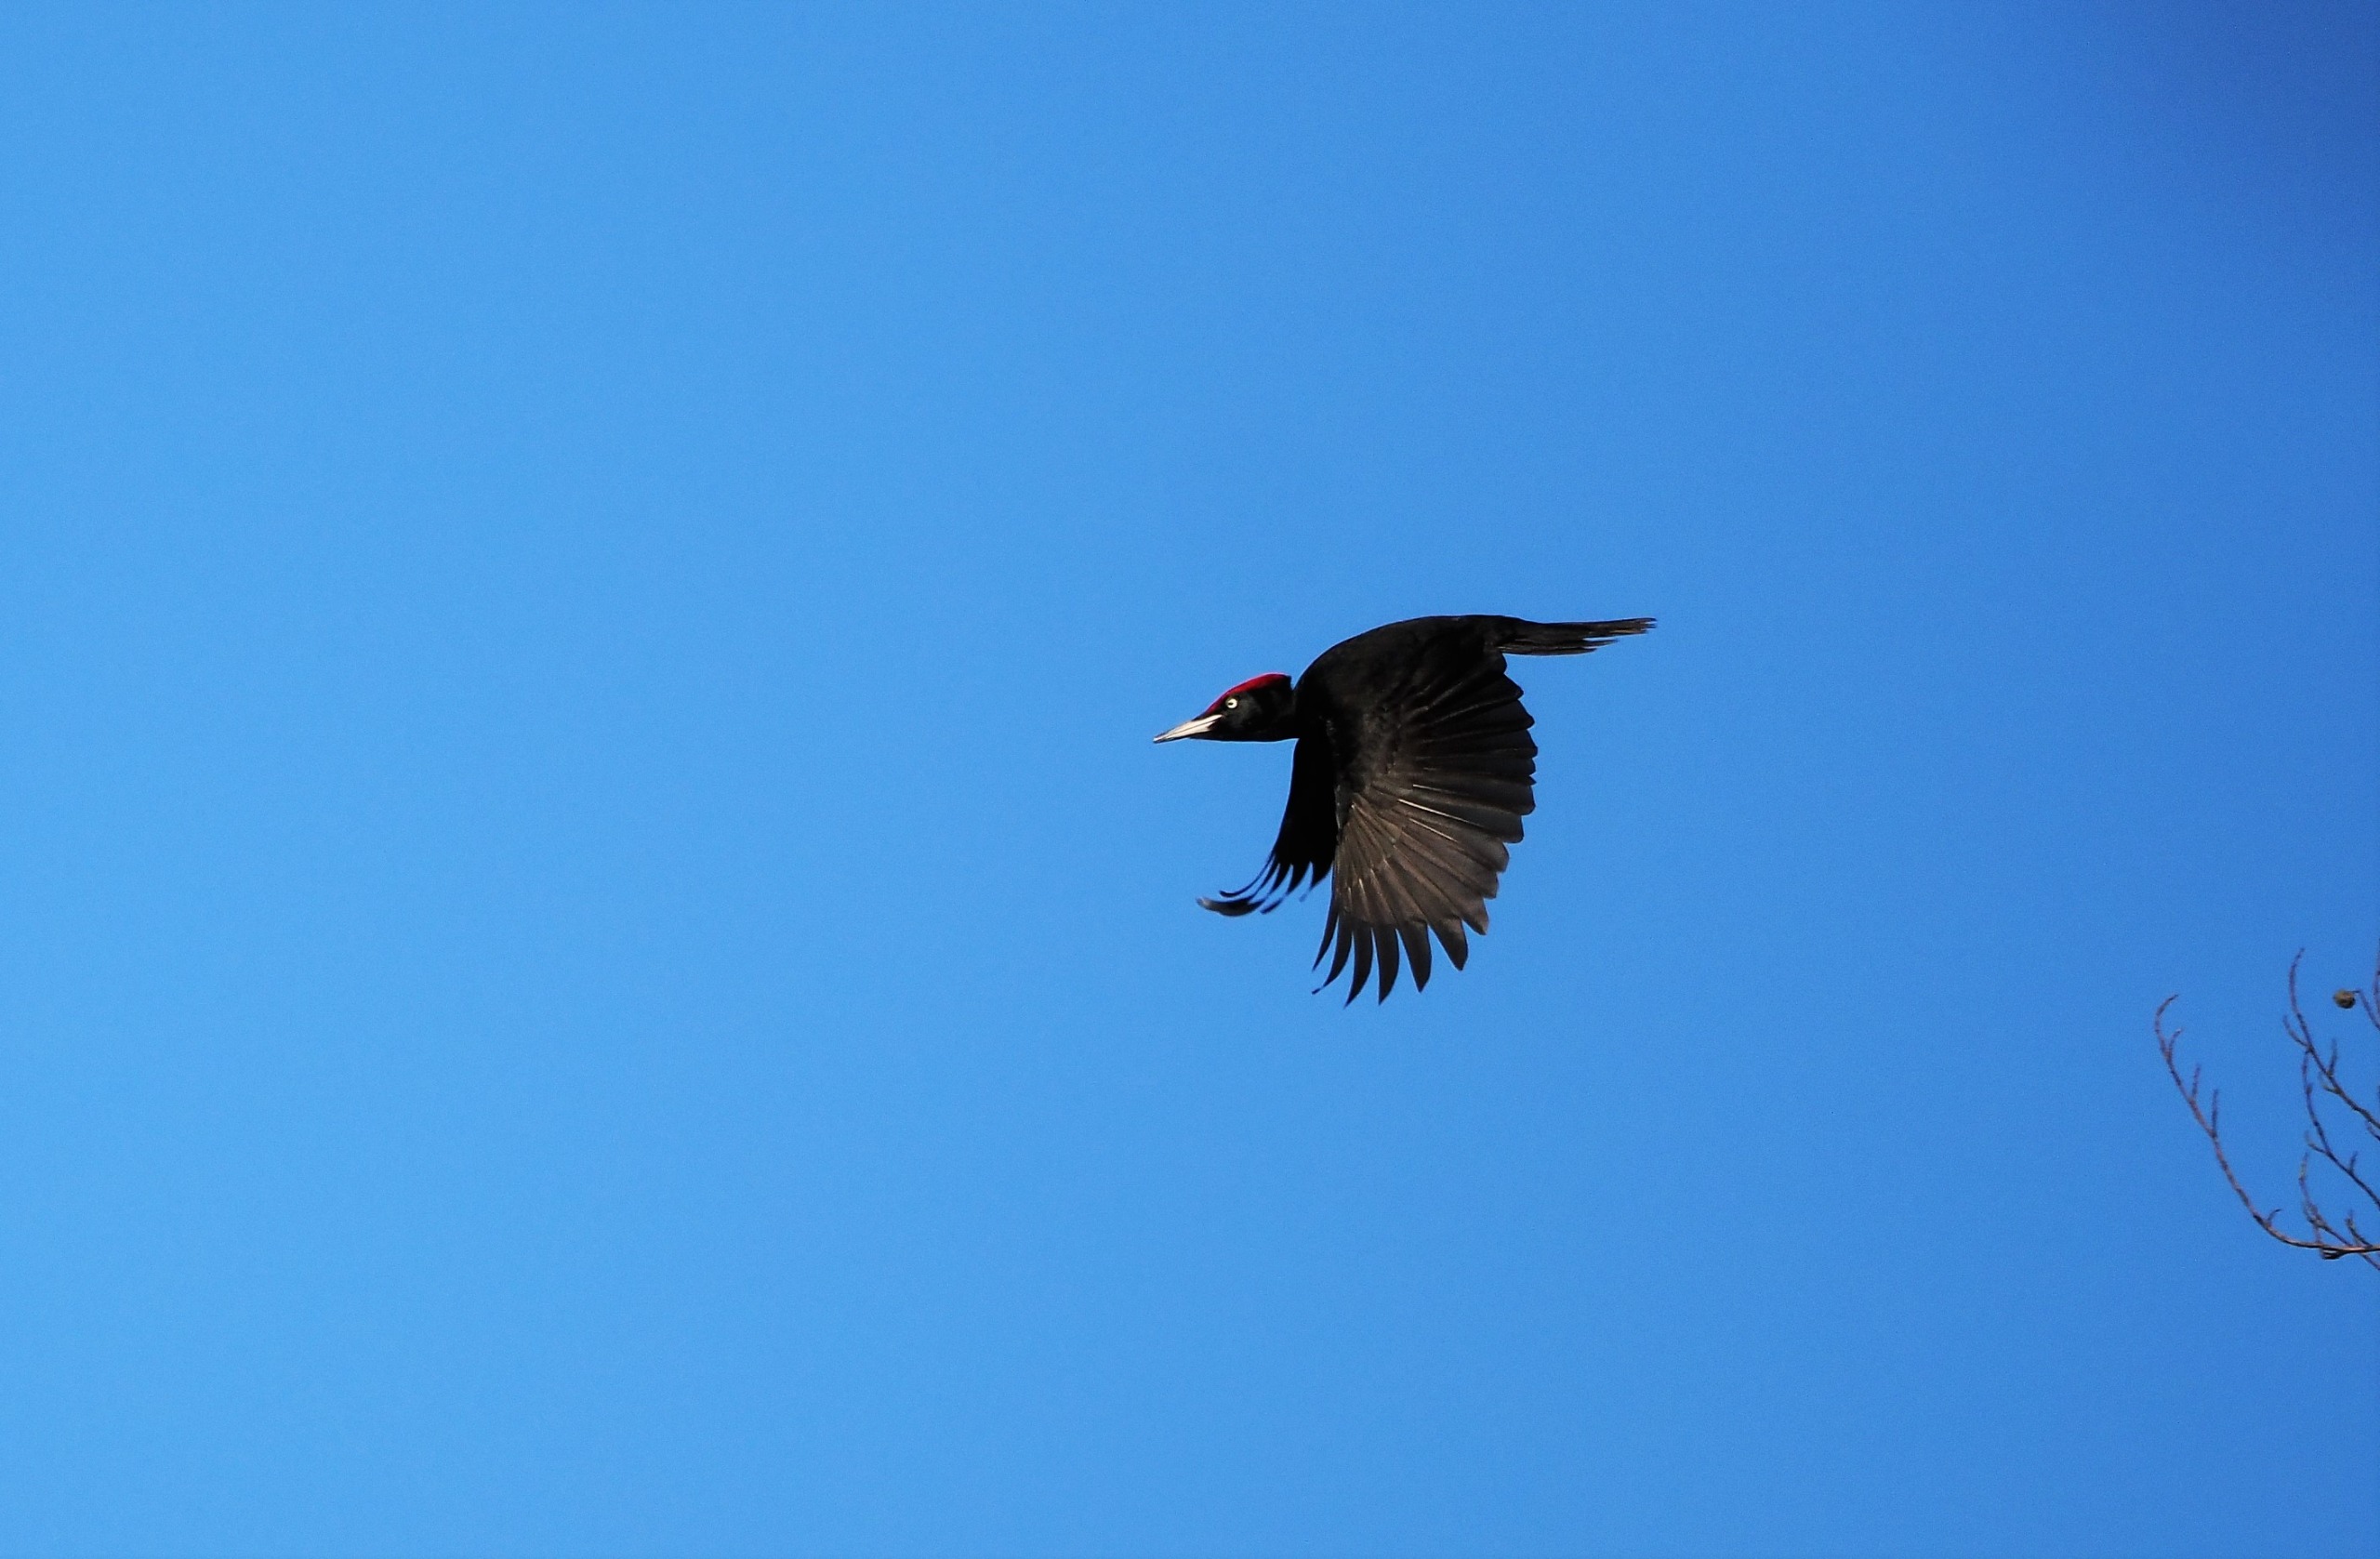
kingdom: Animalia
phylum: Chordata
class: Aves
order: Piciformes
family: Picidae
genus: Dryocopus
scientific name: Dryocopus martius
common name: Sortspætte
